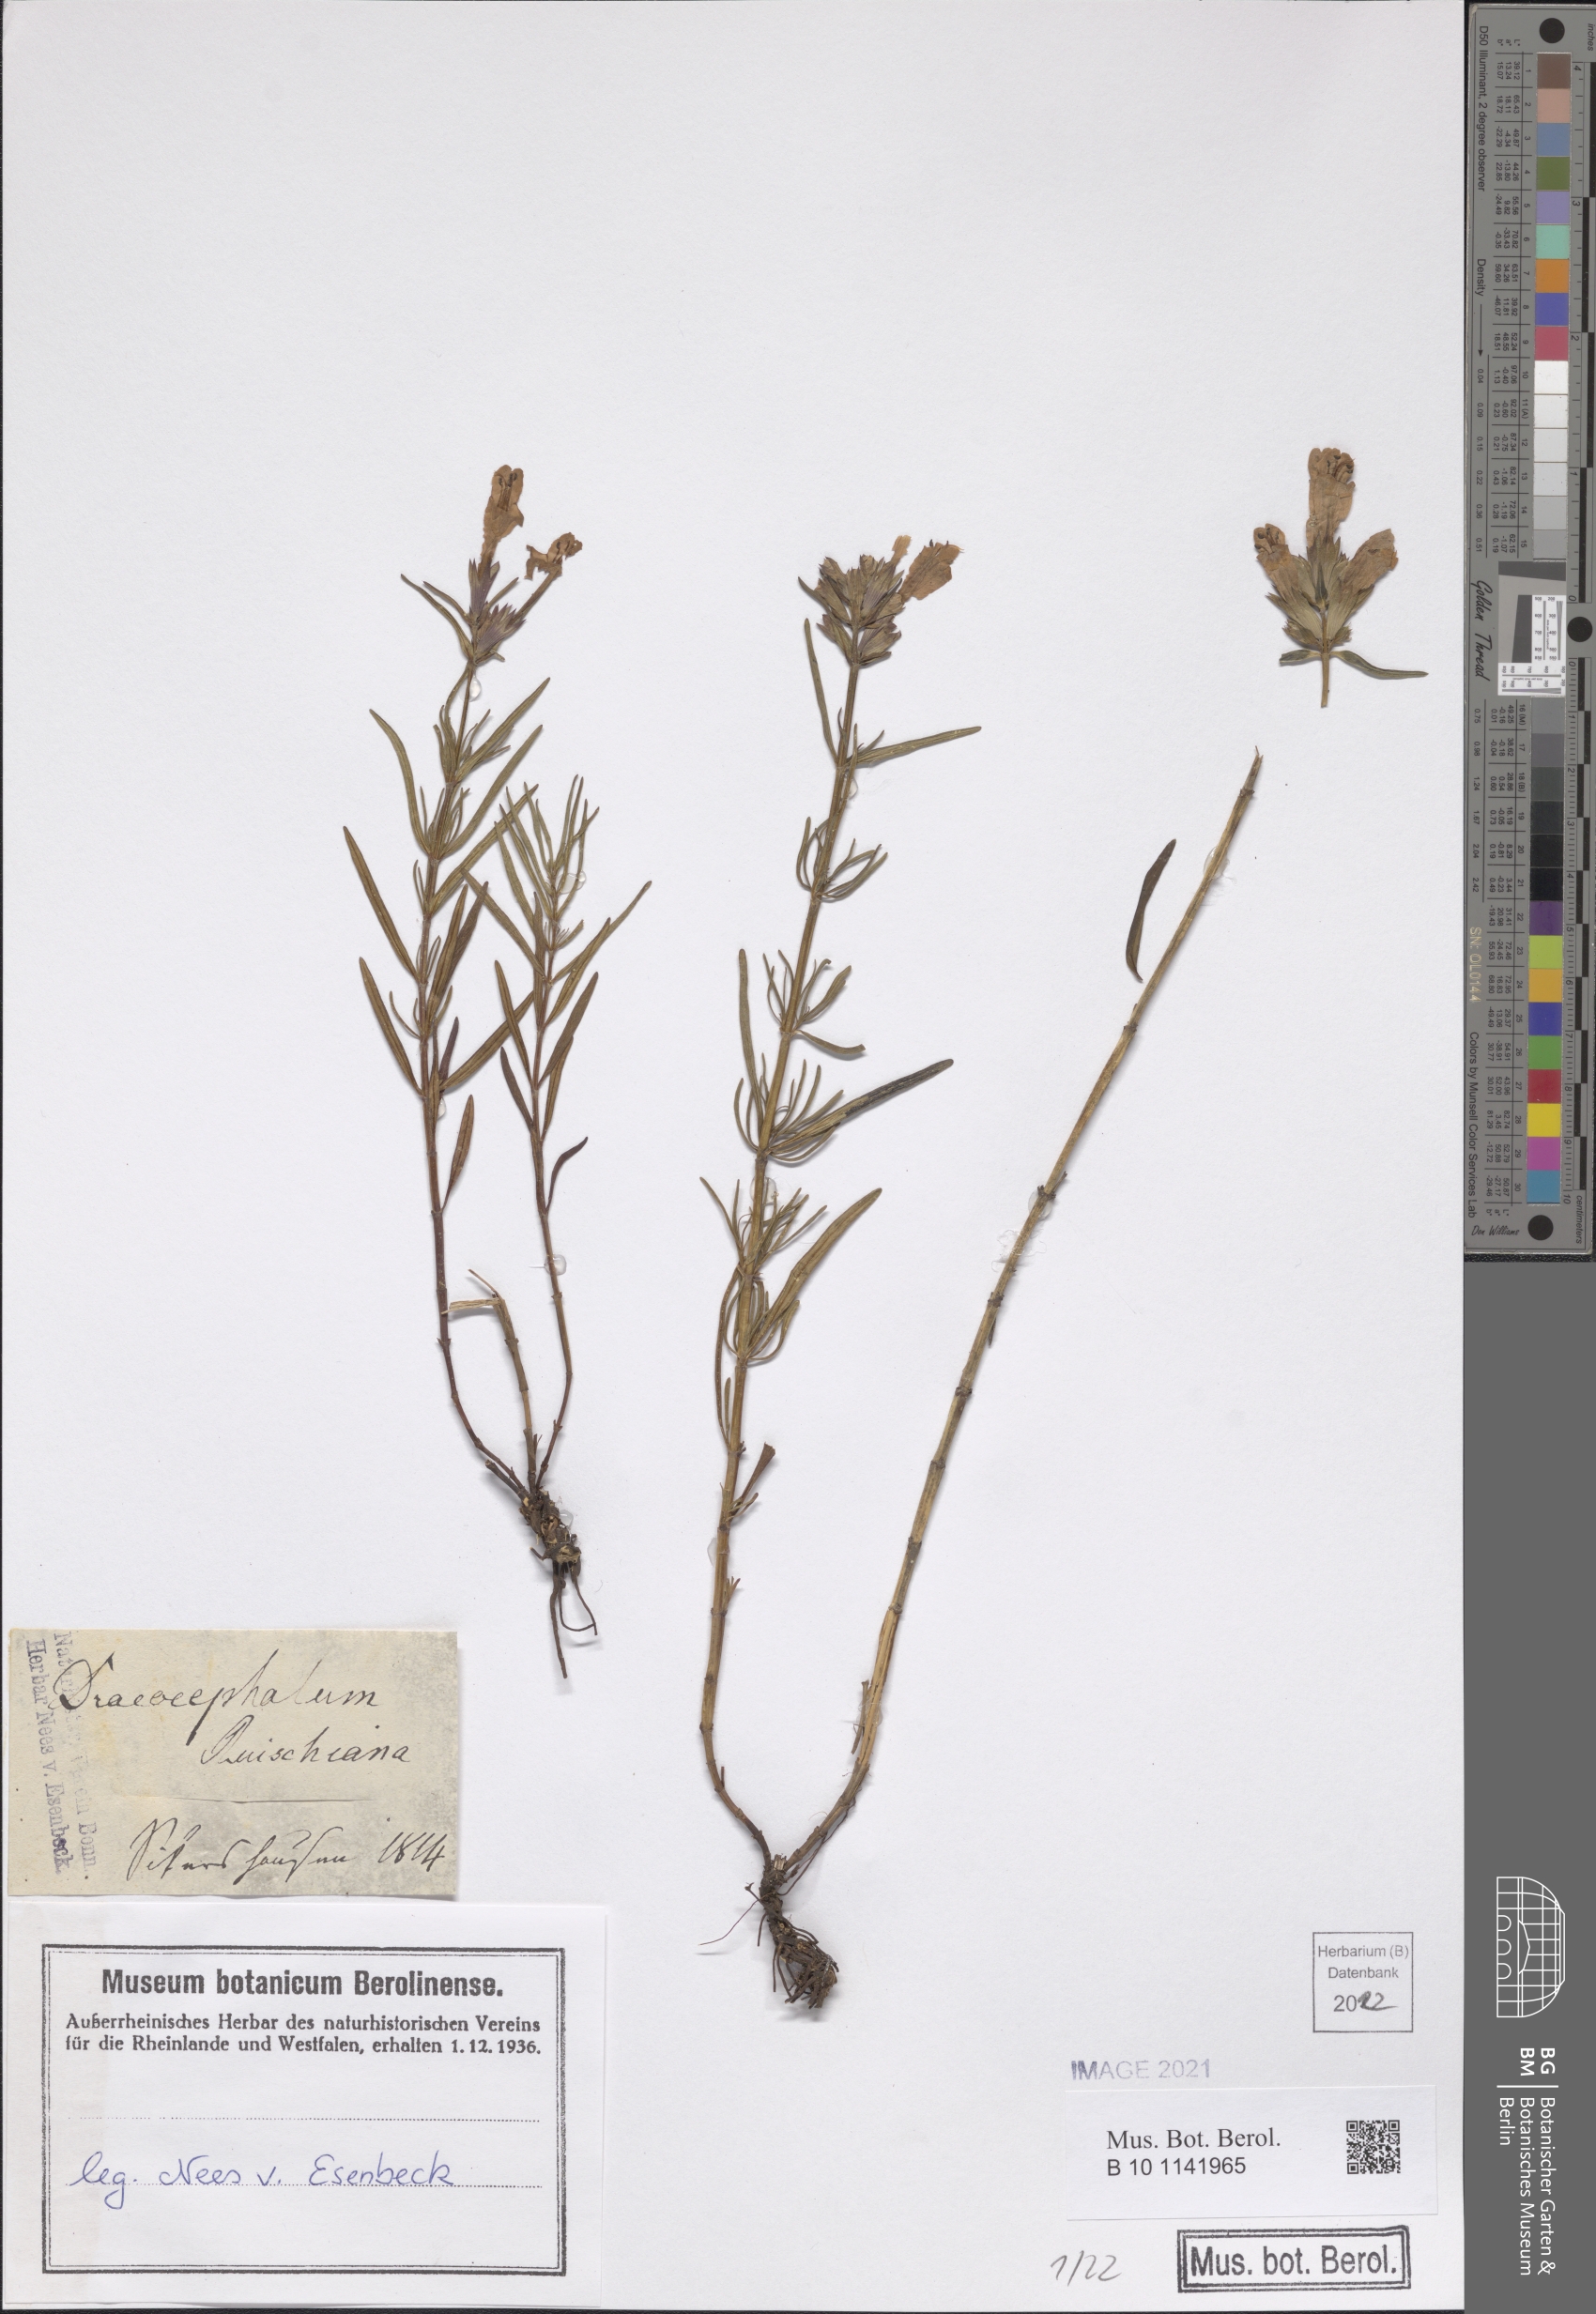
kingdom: Plantae
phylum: Tracheophyta
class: Magnoliopsida
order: Lamiales
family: Lamiaceae
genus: Dracocephalum
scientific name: Dracocephalum ruyschiana
